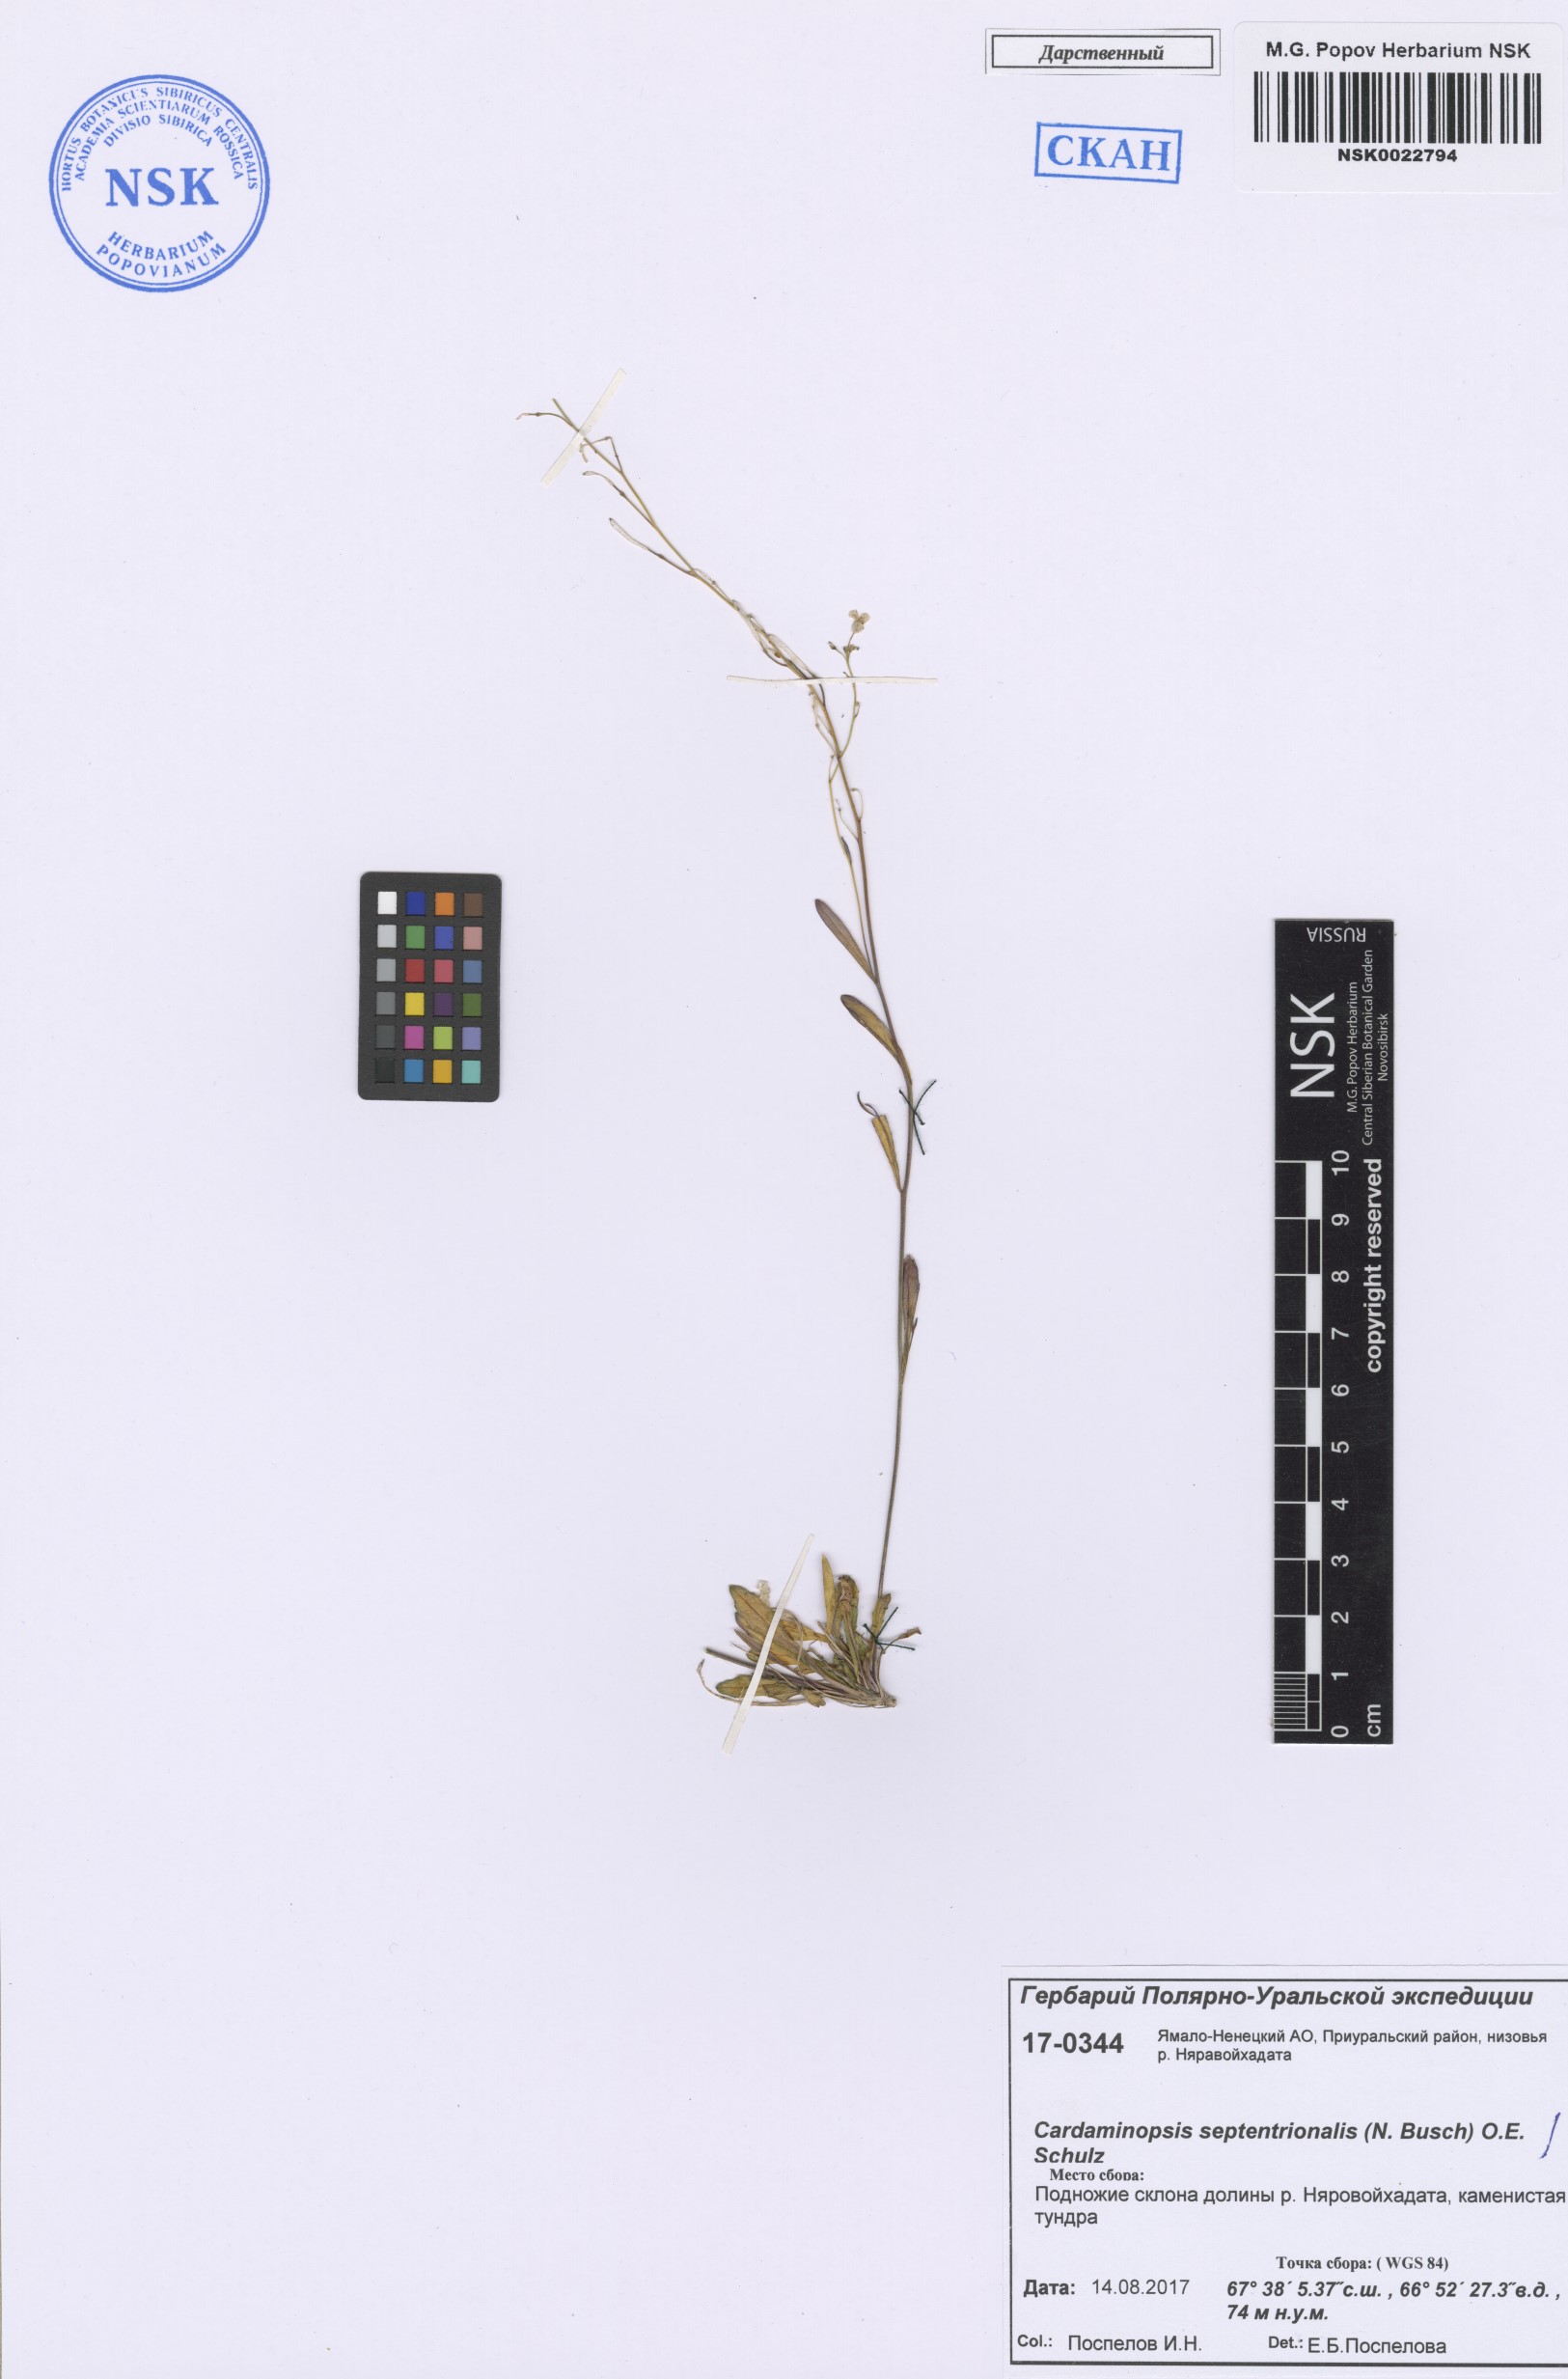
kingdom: Plantae
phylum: Tracheophyta
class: Magnoliopsida
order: Brassicales
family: Brassicaceae
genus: Arabidopsis
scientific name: Arabidopsis lyrata
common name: Lyrate rockcress
